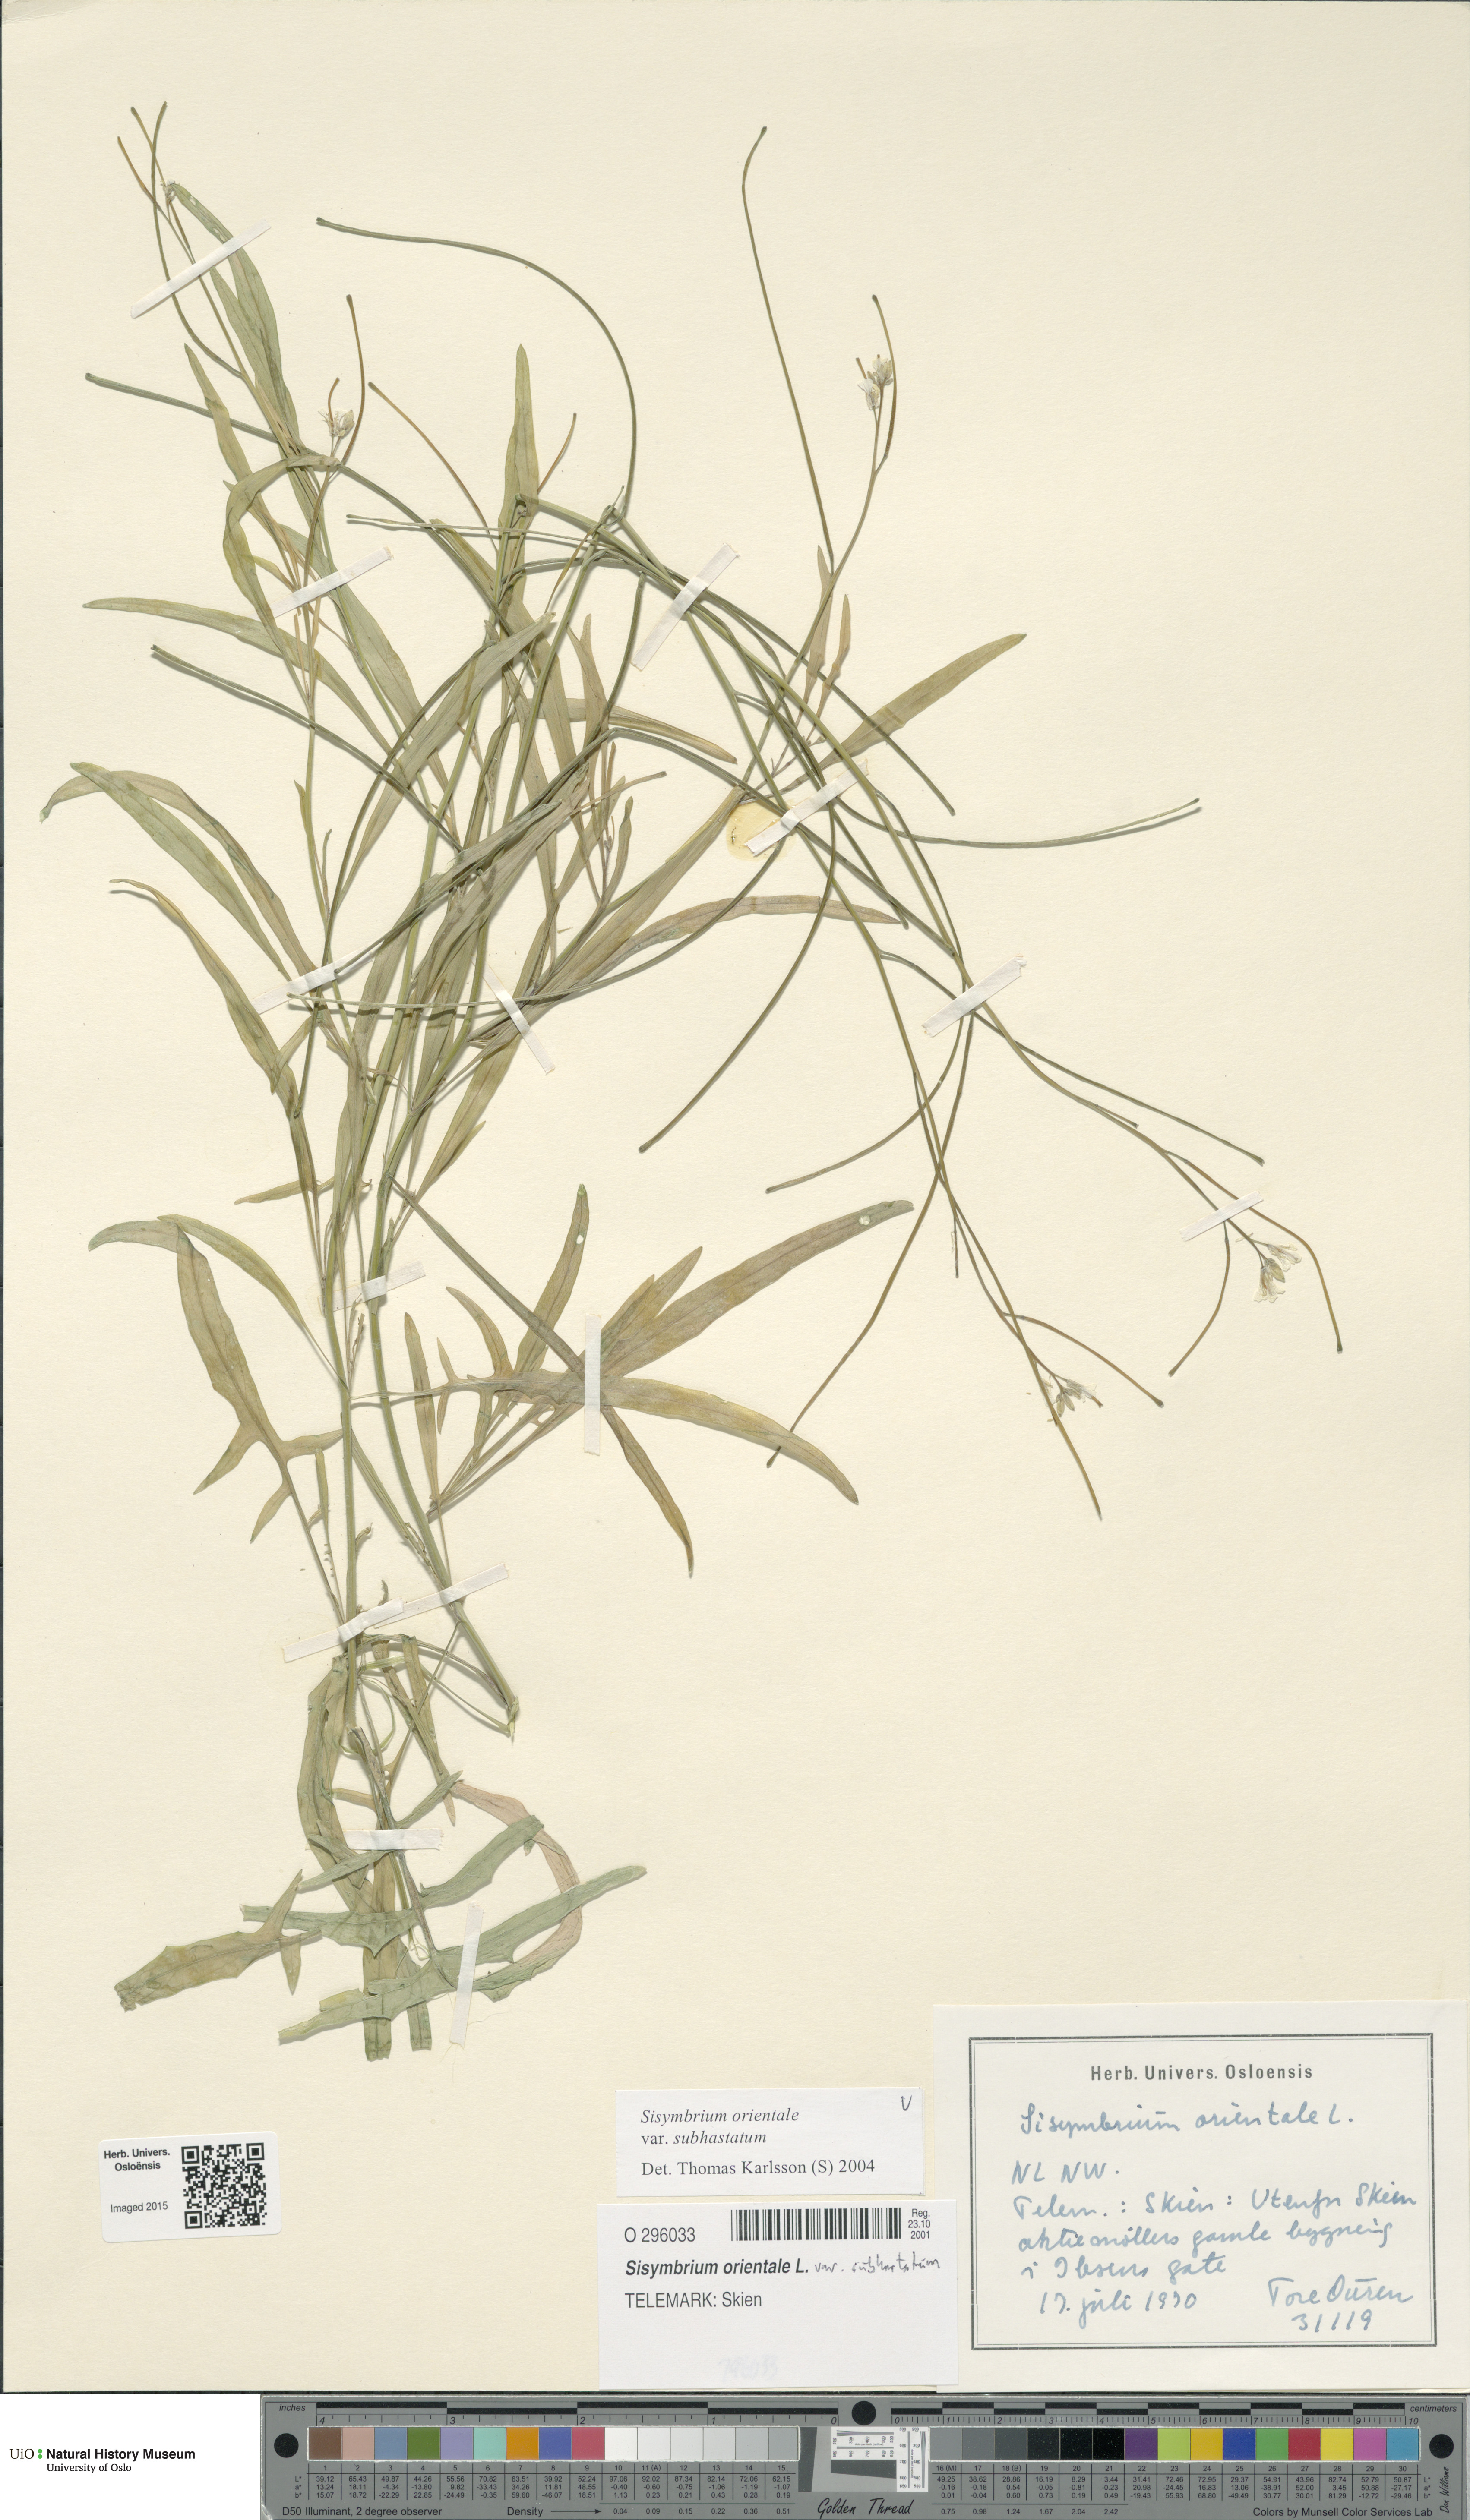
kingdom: Plantae
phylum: Tracheophyta
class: Magnoliopsida
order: Brassicales
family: Brassicaceae
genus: Sisymbrium
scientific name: Sisymbrium orientale
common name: Eastern rocket
